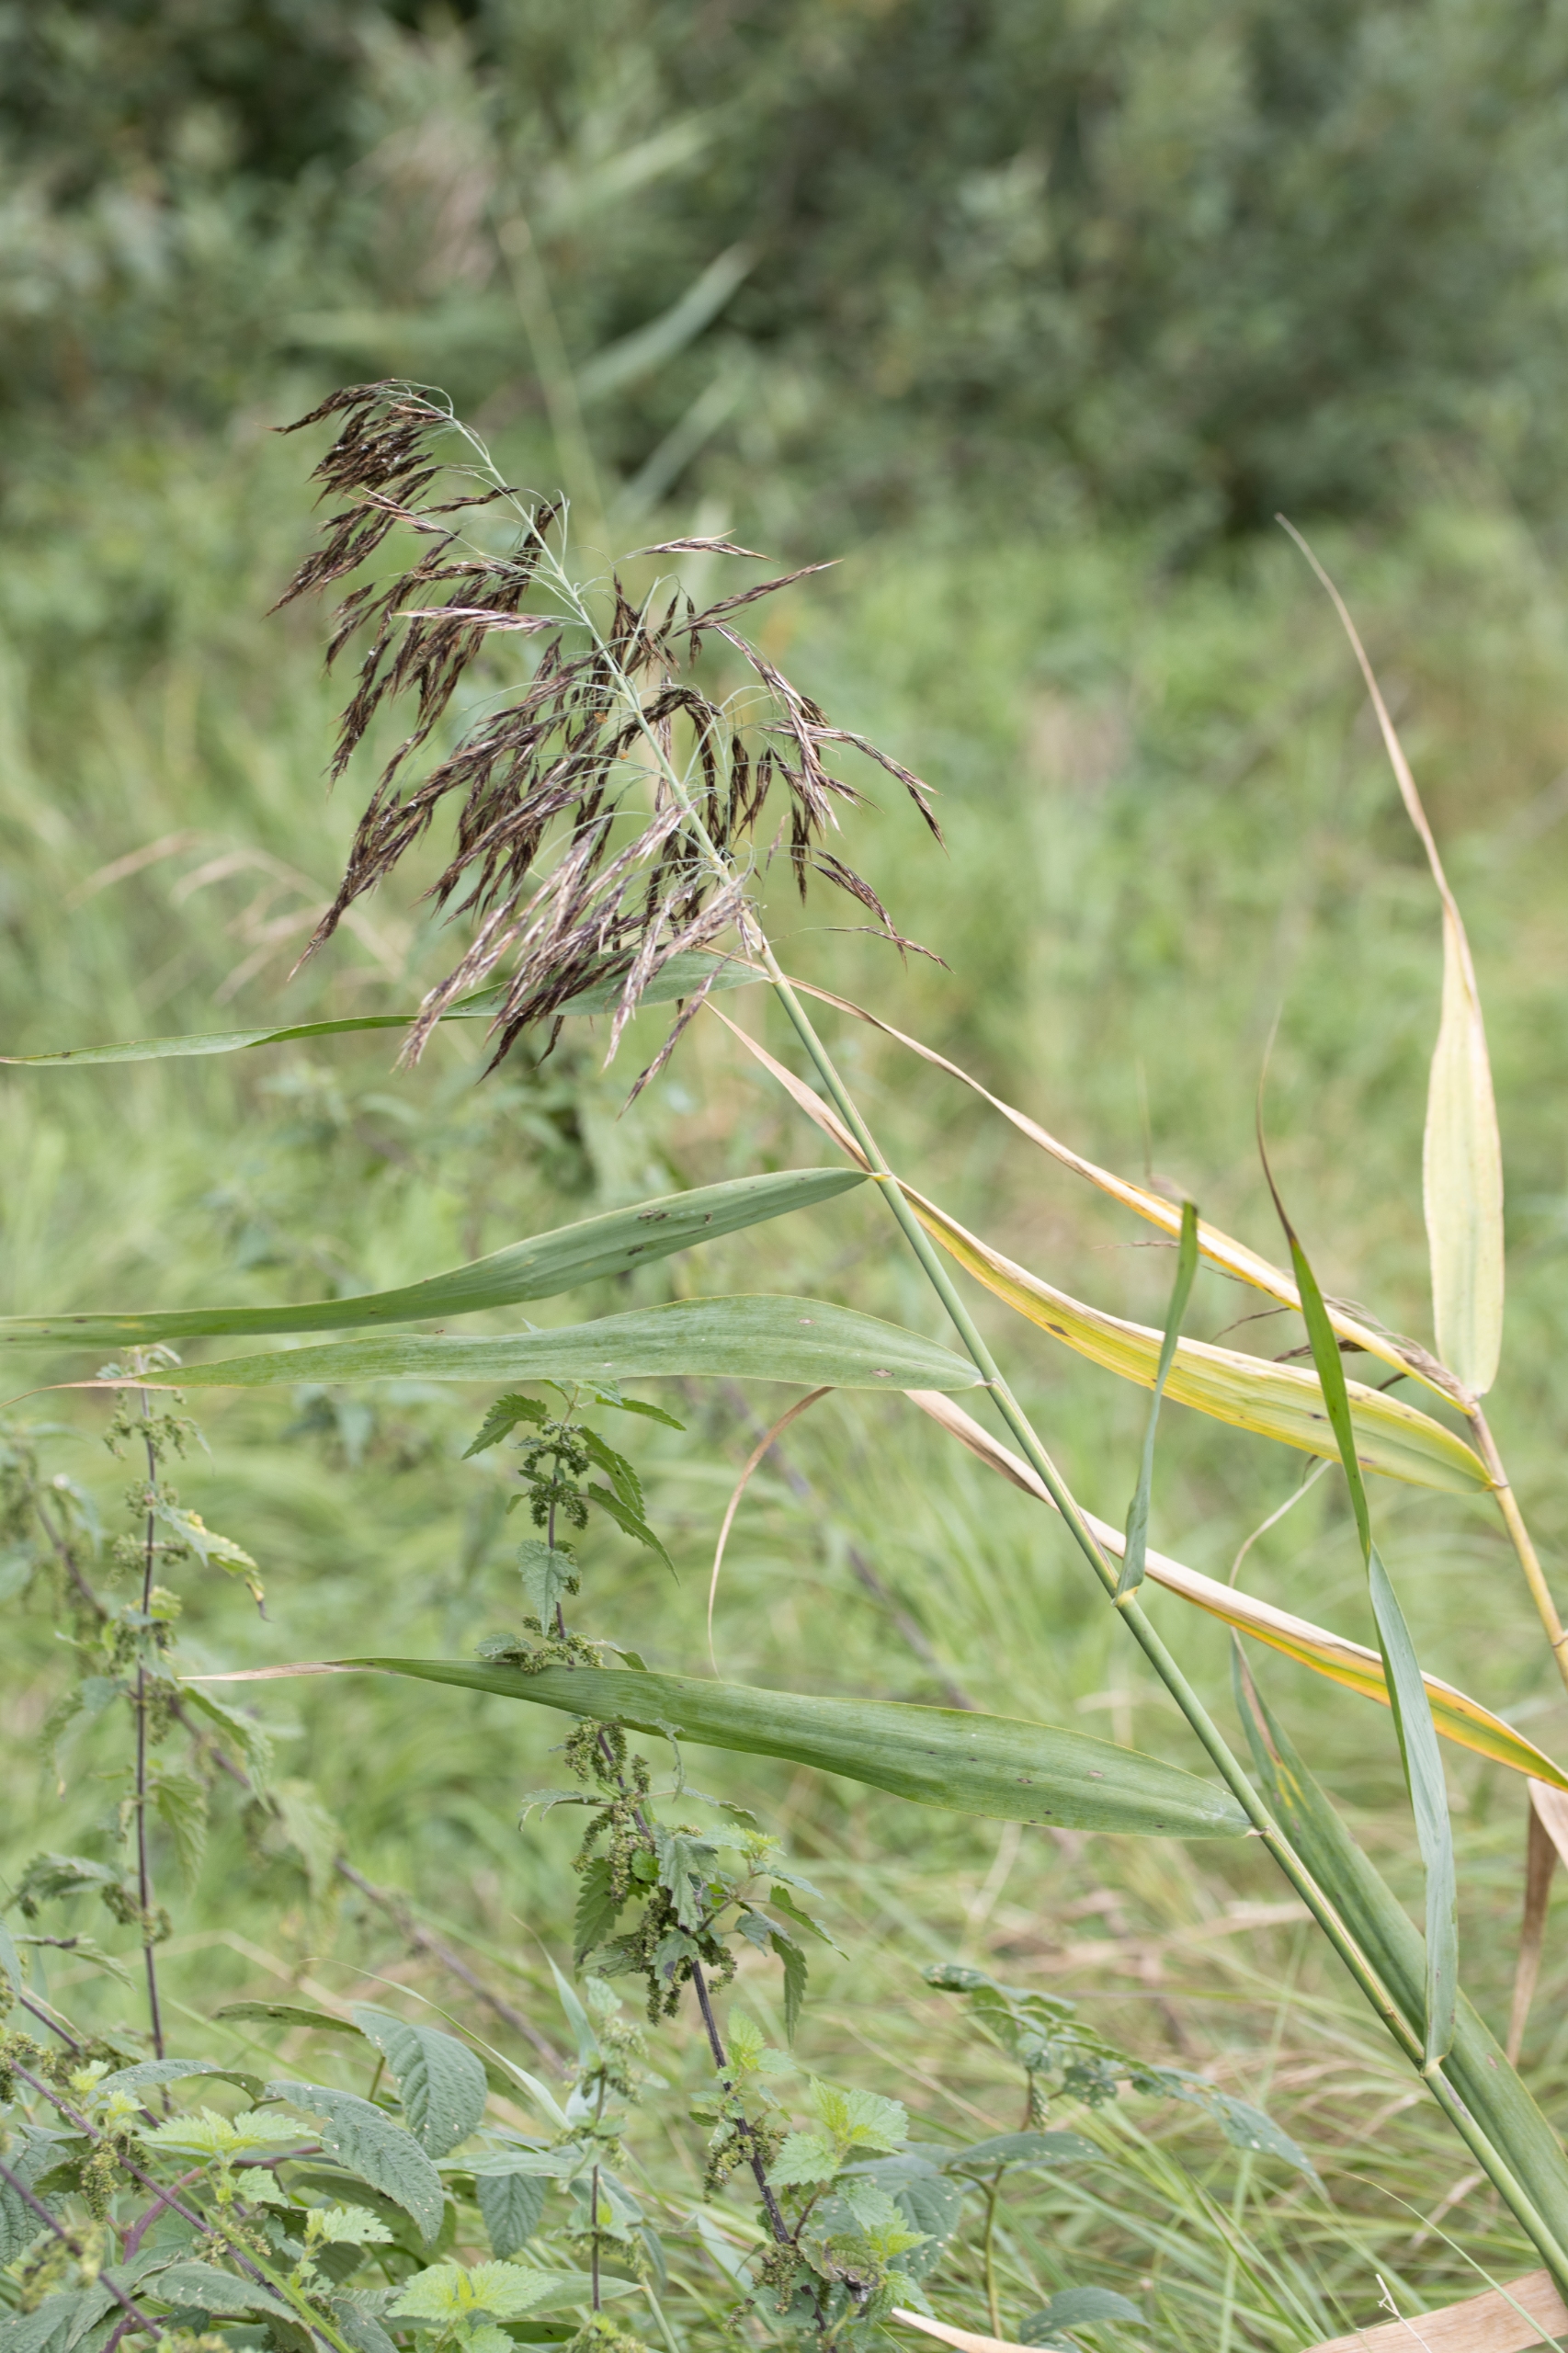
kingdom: Plantae
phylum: Tracheophyta
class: Liliopsida
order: Poales
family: Poaceae
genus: Phragmites
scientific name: Phragmites australis
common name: Tagrør
